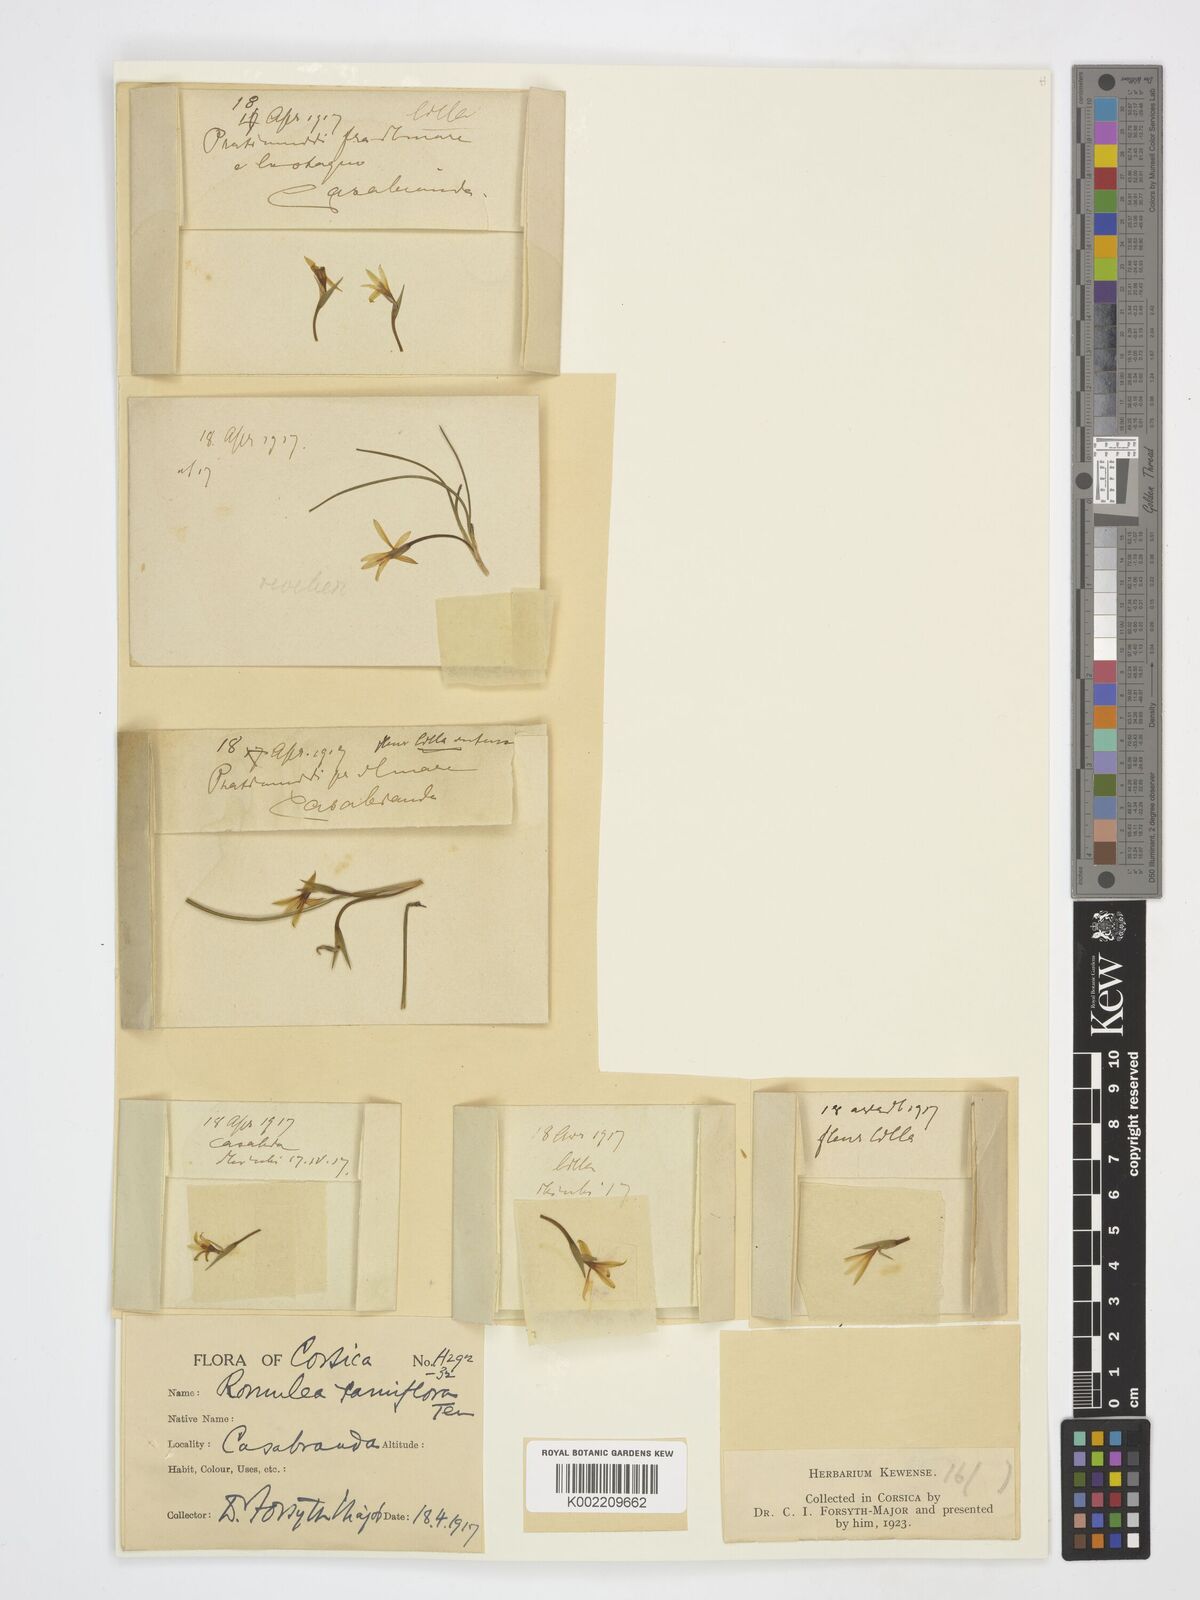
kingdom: Plantae
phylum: Tracheophyta
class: Liliopsida
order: Asparagales
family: Iridaceae
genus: Romulea
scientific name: Romulea ramiflora
